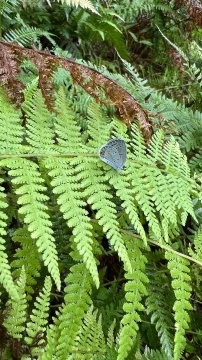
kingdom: Animalia
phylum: Arthropoda
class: Insecta
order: Lepidoptera
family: Lycaenidae
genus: Elkalyce
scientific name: Elkalyce comyntas
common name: Eastern Tailed-Blue
